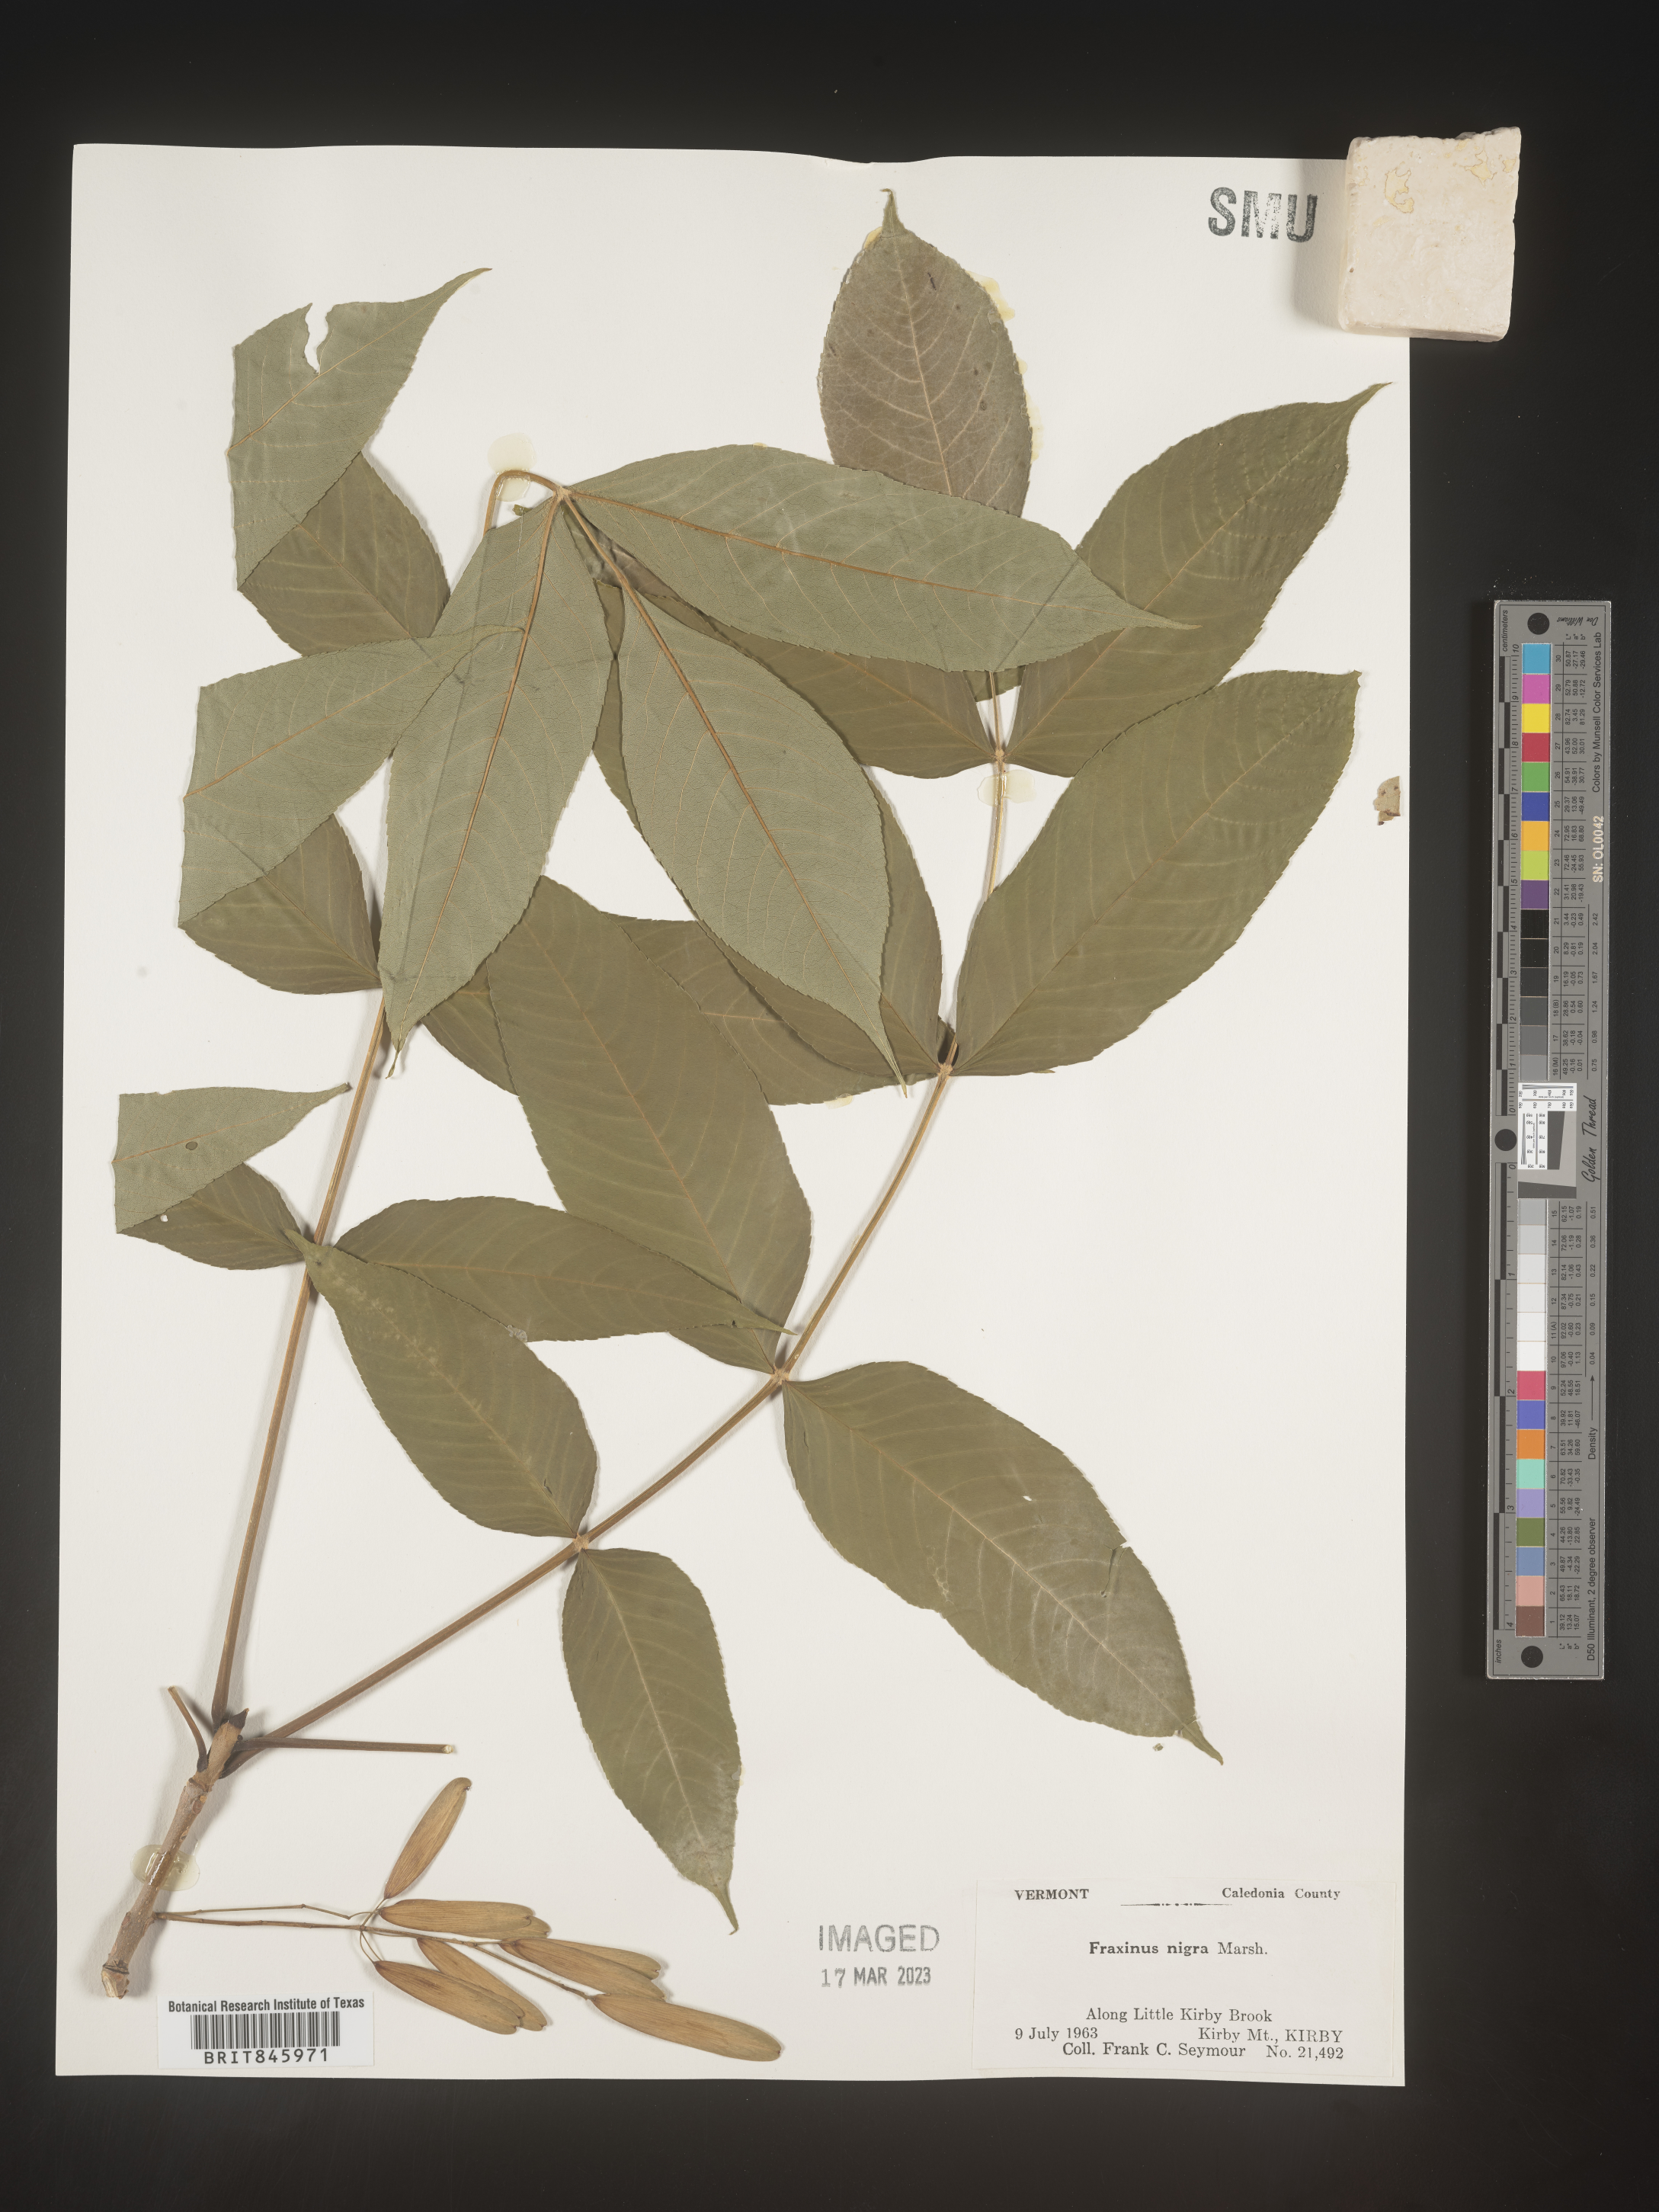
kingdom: Plantae
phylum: Tracheophyta
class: Magnoliopsida
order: Lamiales
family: Oleaceae
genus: Fraxinus
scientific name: Fraxinus nigra
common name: Black ash
